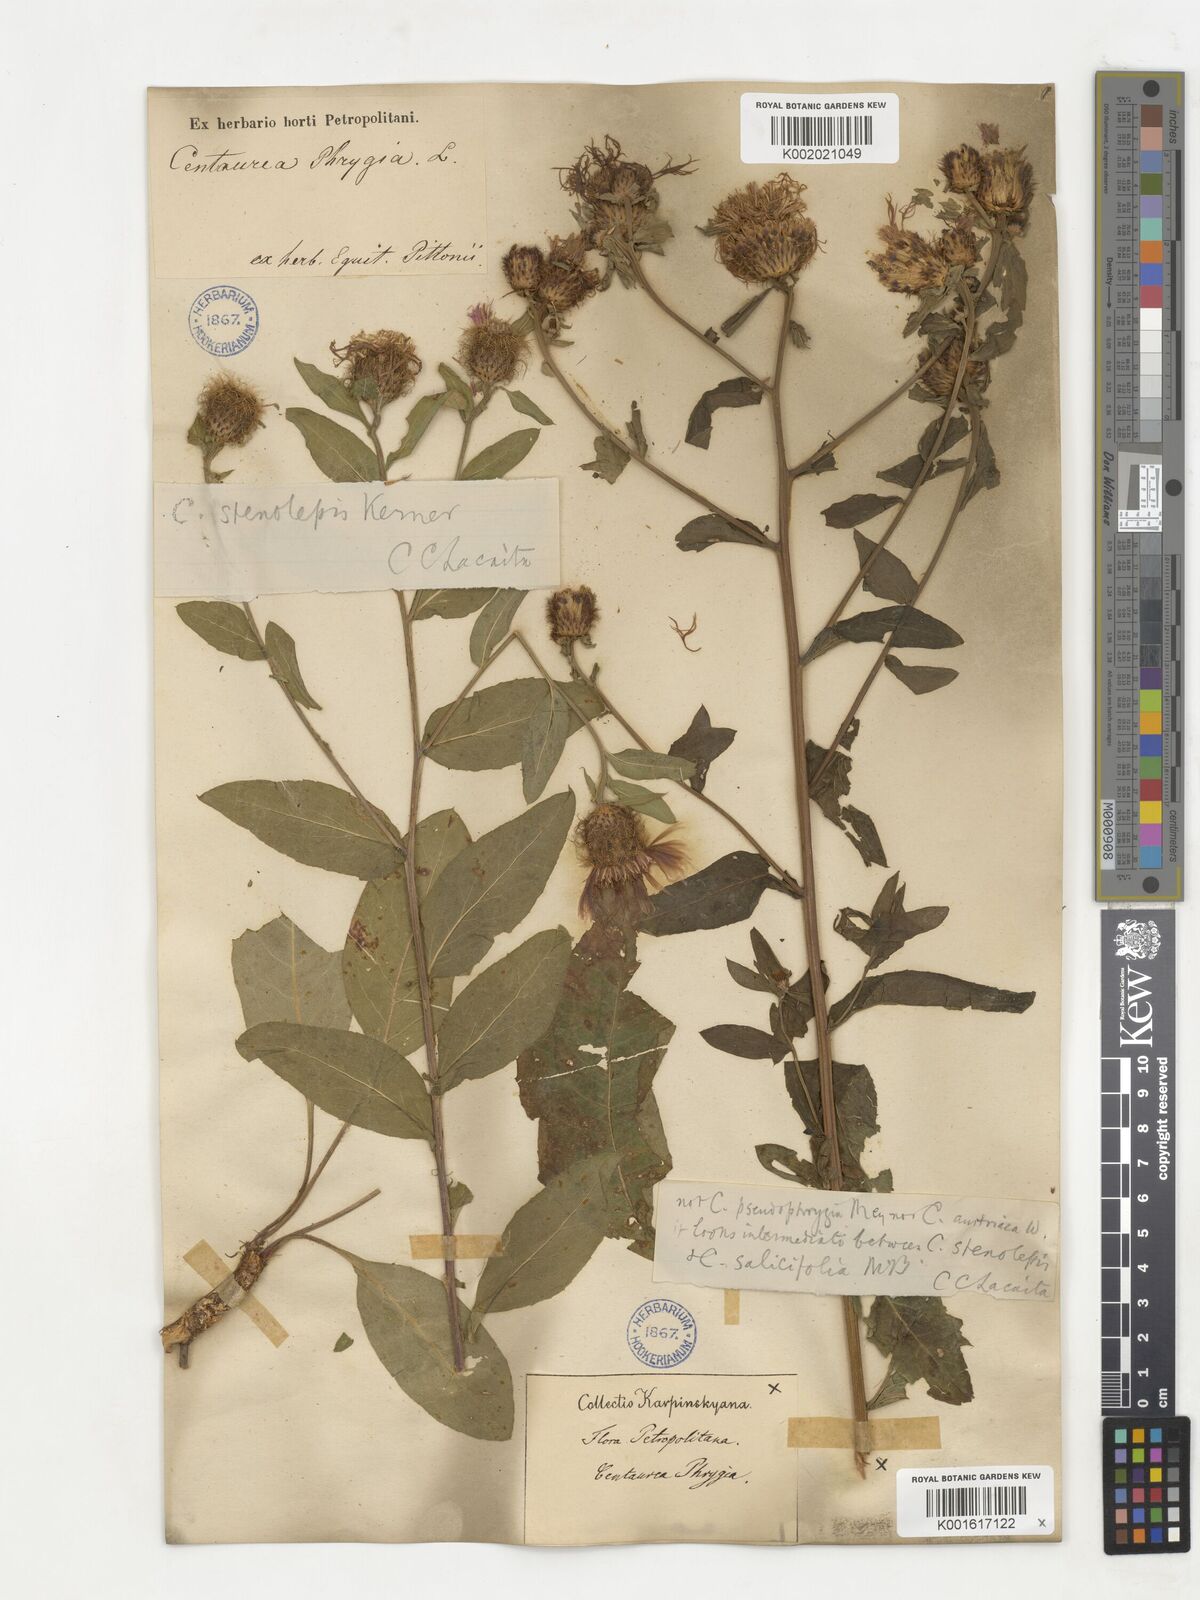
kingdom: Plantae
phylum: Tracheophyta
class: Magnoliopsida
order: Asterales
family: Asteraceae
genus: Centaurea
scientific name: Centaurea phrygia
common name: Wig knapweed
